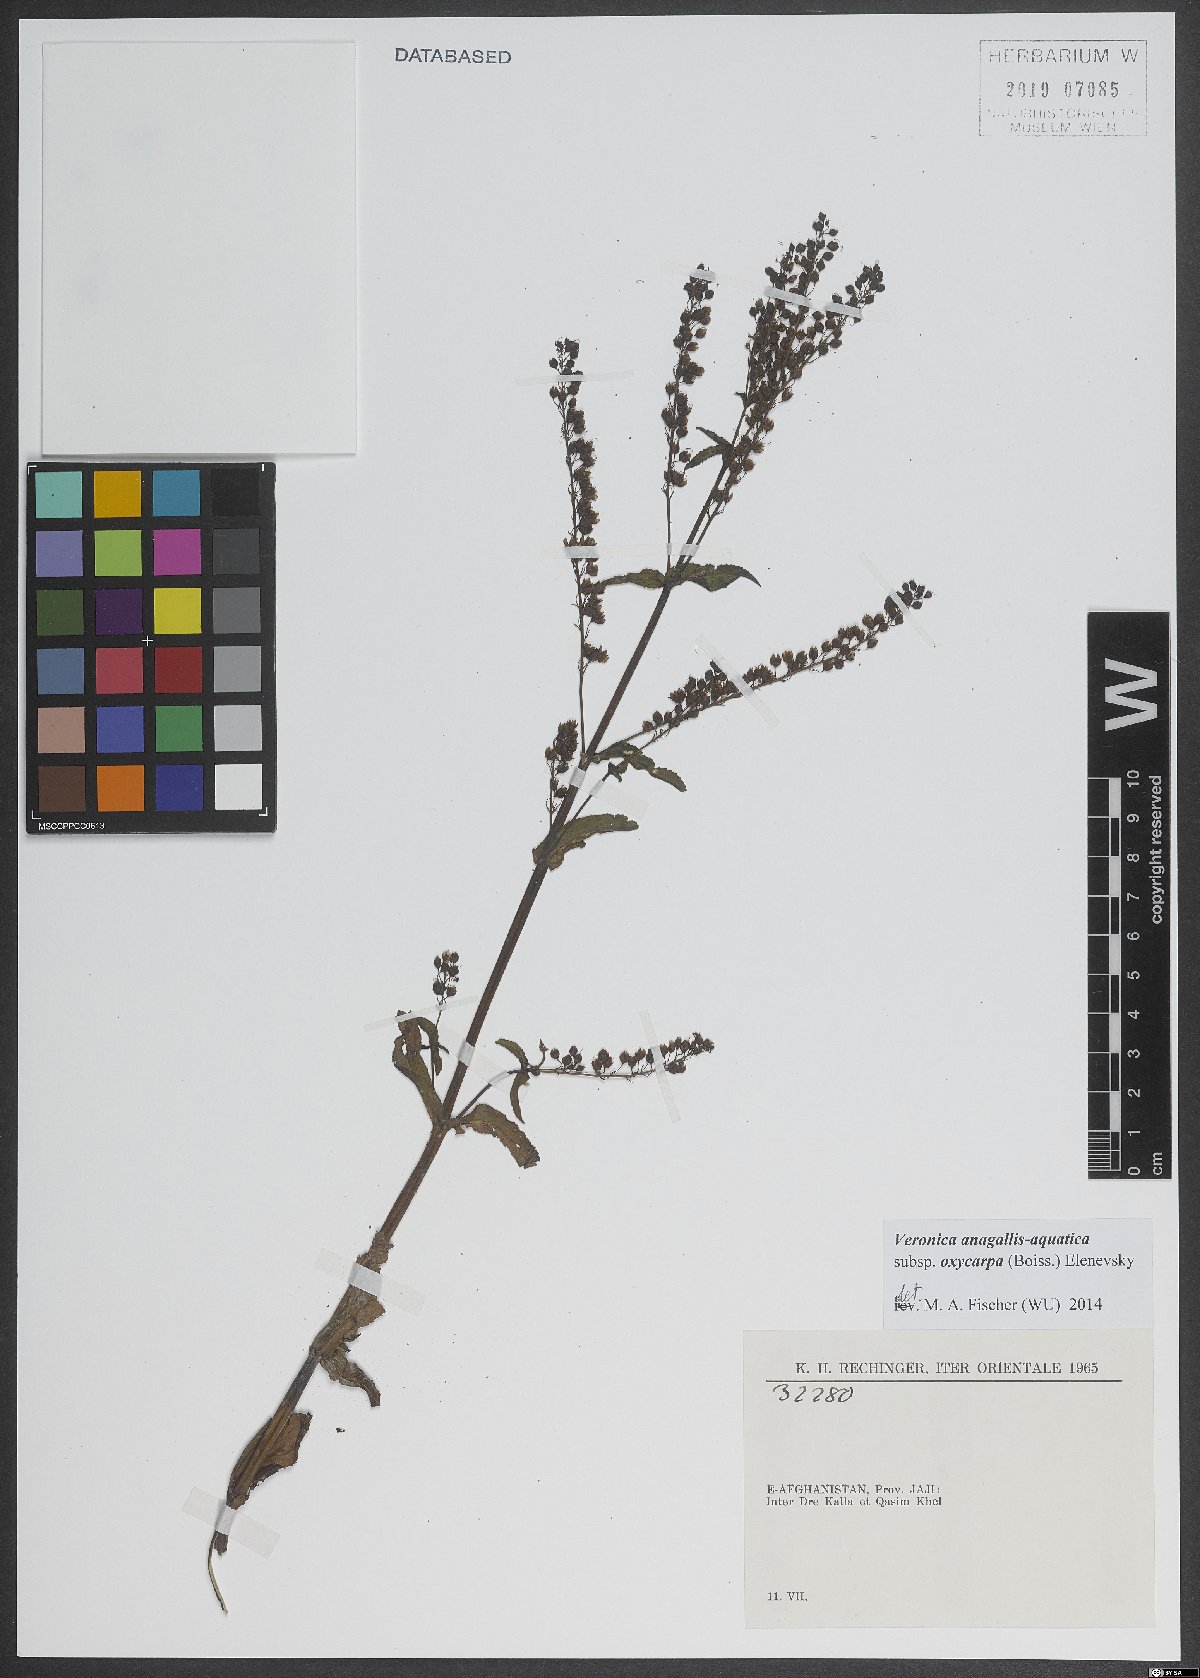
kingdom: Plantae
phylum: Tracheophyta
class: Magnoliopsida
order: Lamiales
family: Plantaginaceae
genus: Veronica
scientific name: Veronica oxycarpa
